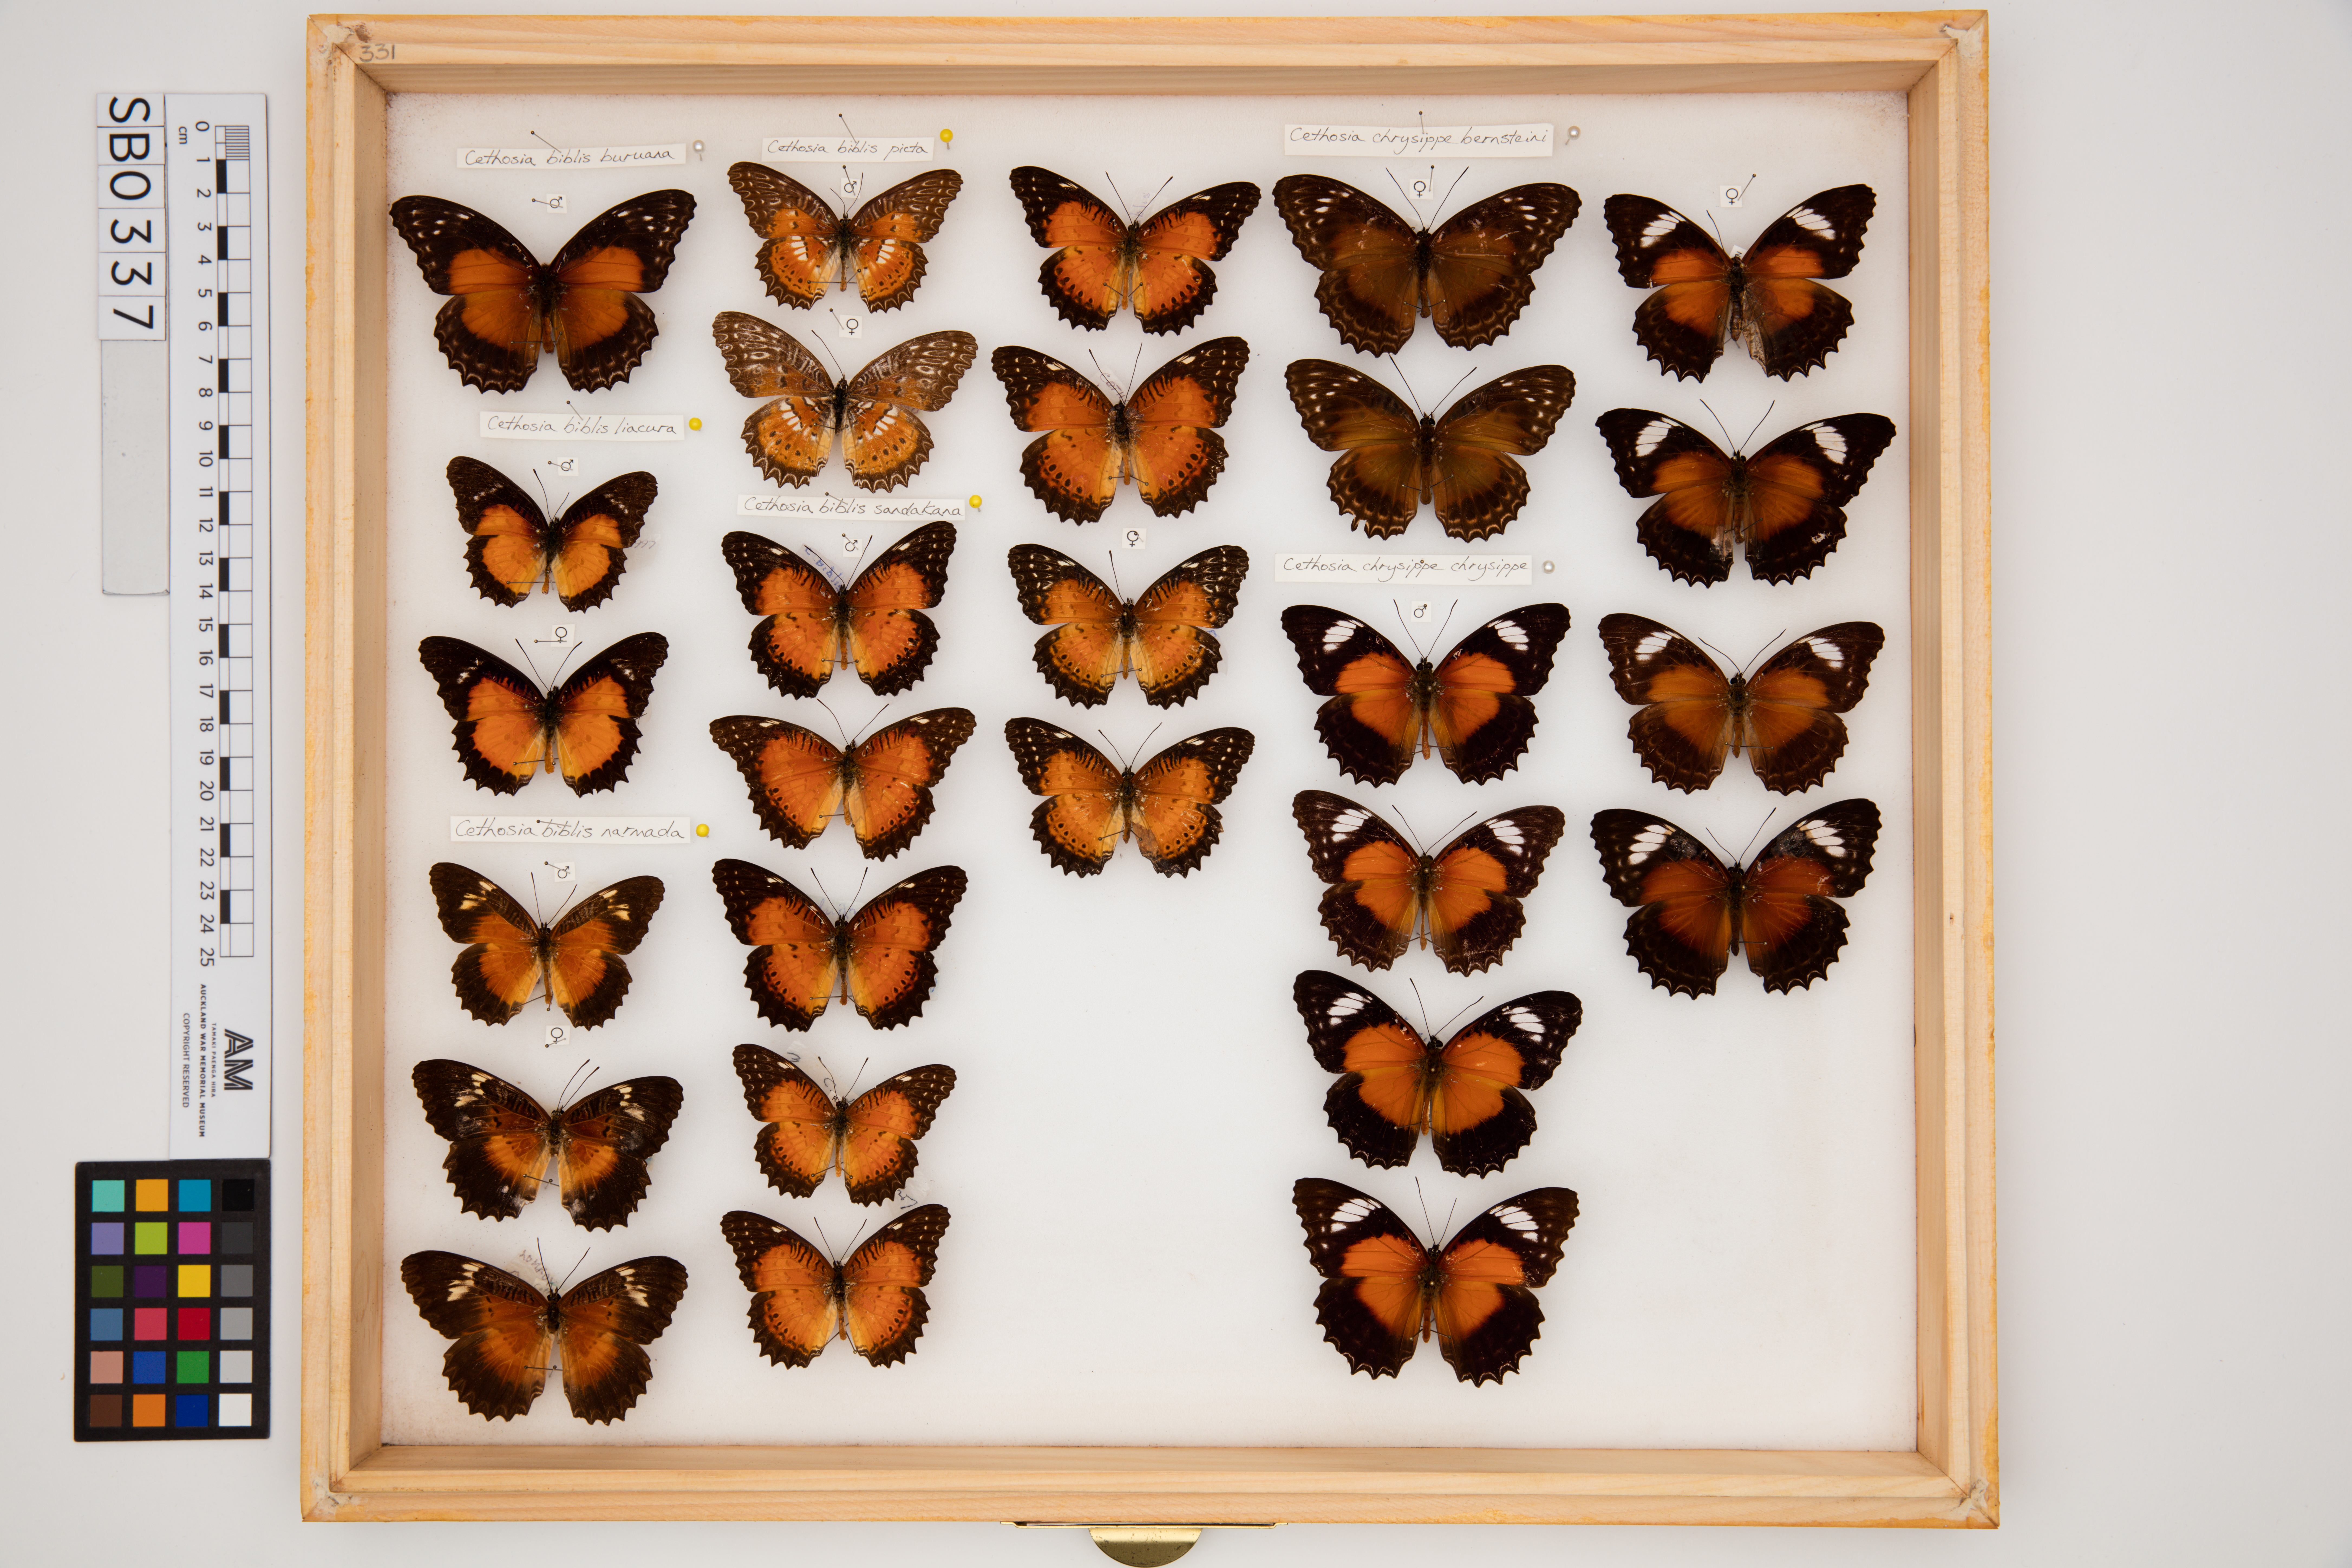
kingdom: Animalia
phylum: Arthropoda
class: Insecta
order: Lepidoptera
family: Nymphalidae
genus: Cethosia
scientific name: Cethosia biblis
